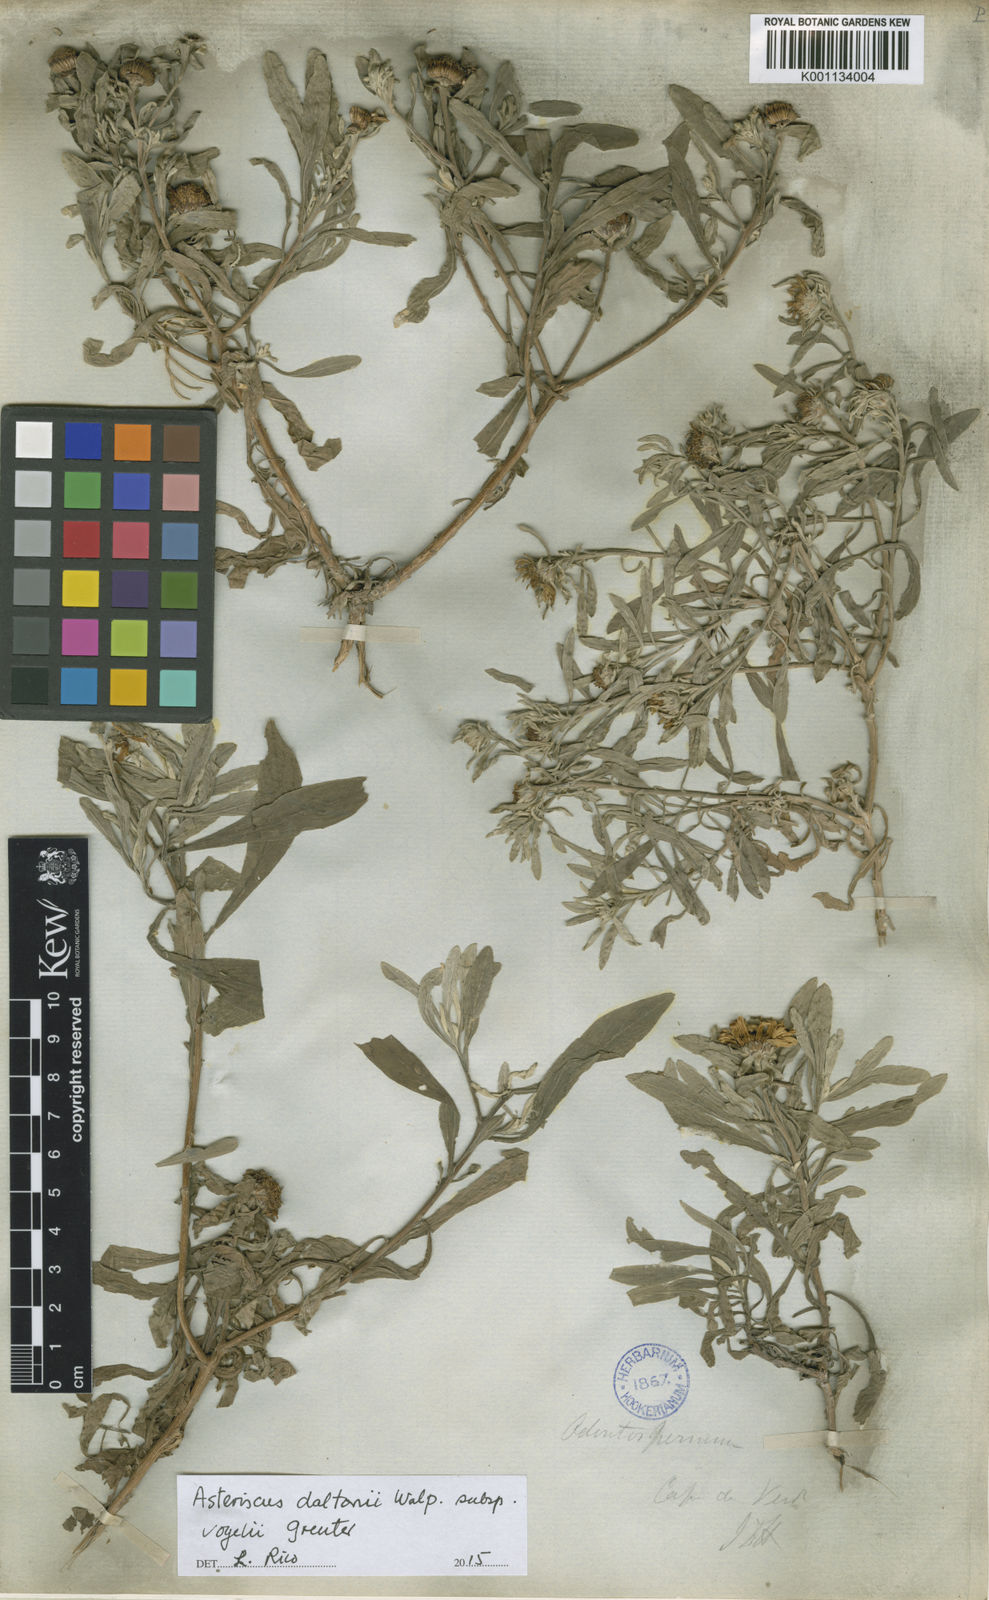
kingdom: Plantae
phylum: Tracheophyta
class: Magnoliopsida
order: Asterales
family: Asteraceae
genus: Asteriscus
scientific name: Asteriscus daltonii
